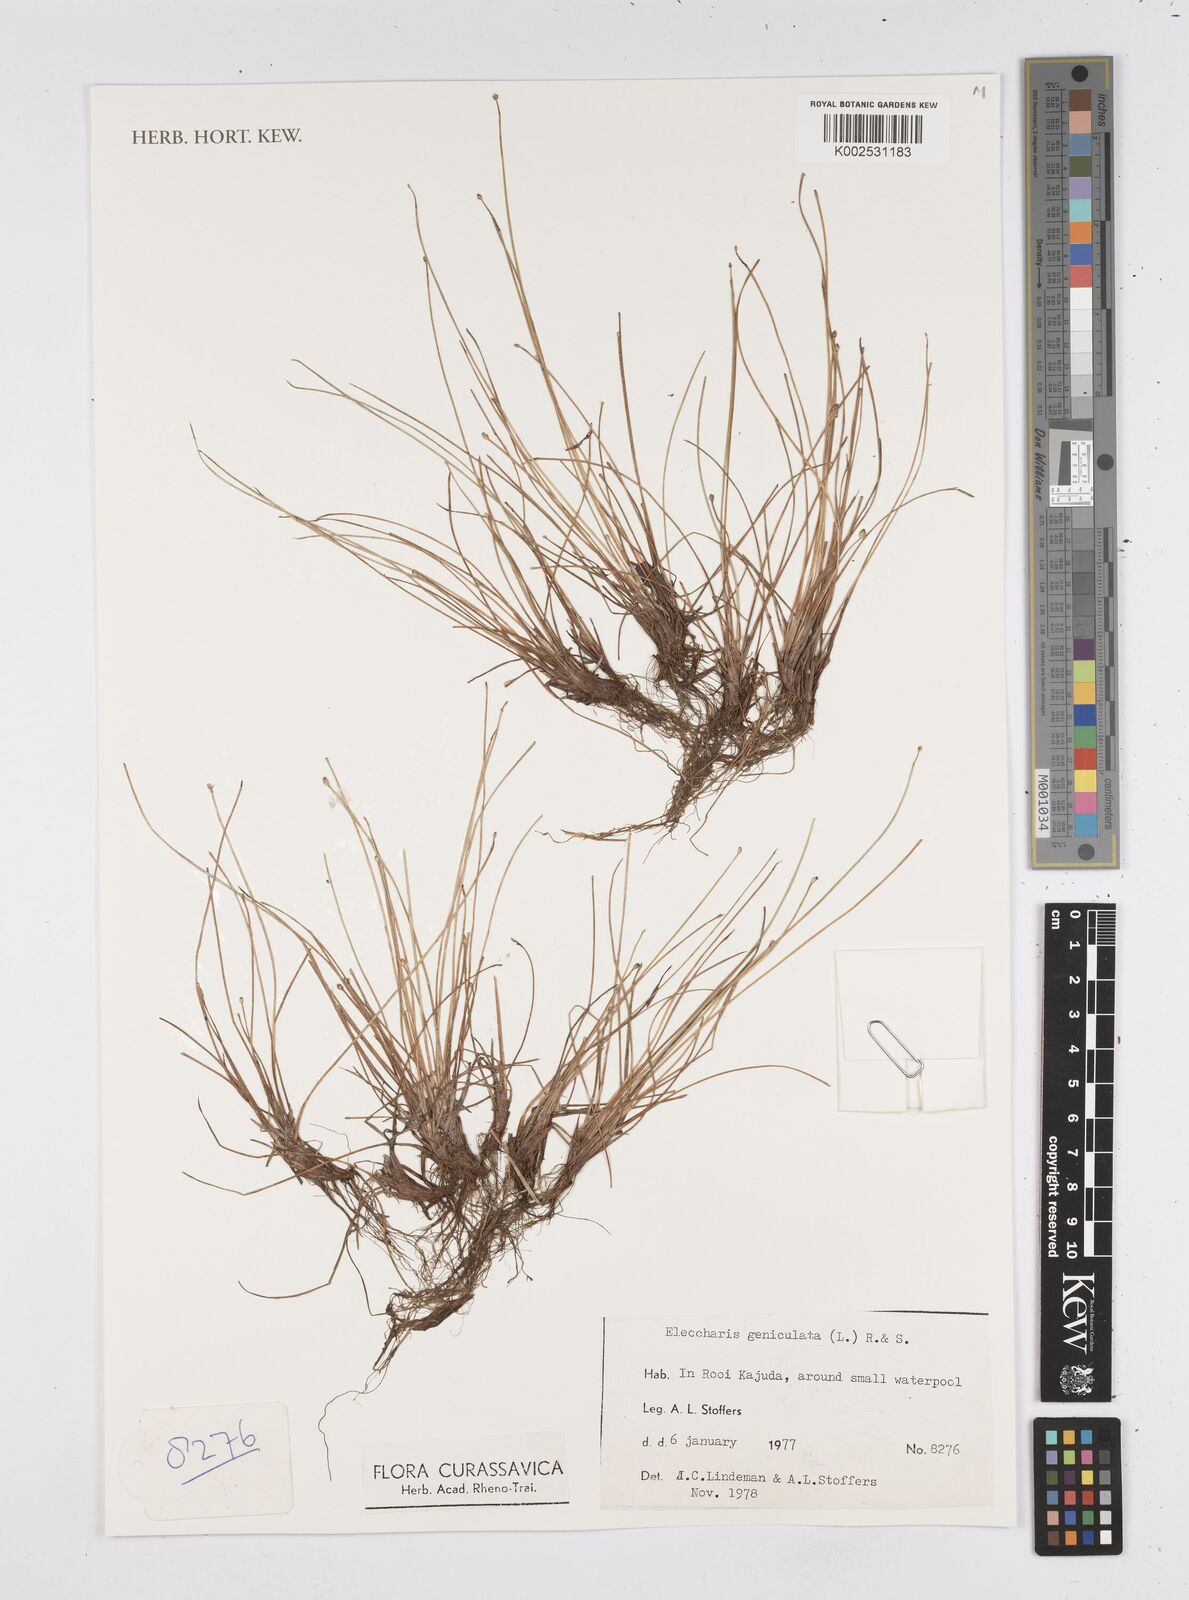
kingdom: Plantae
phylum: Tracheophyta
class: Liliopsida
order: Poales
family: Cyperaceae
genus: Eleocharis
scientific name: Eleocharis geniculata
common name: Canada spikesedge
